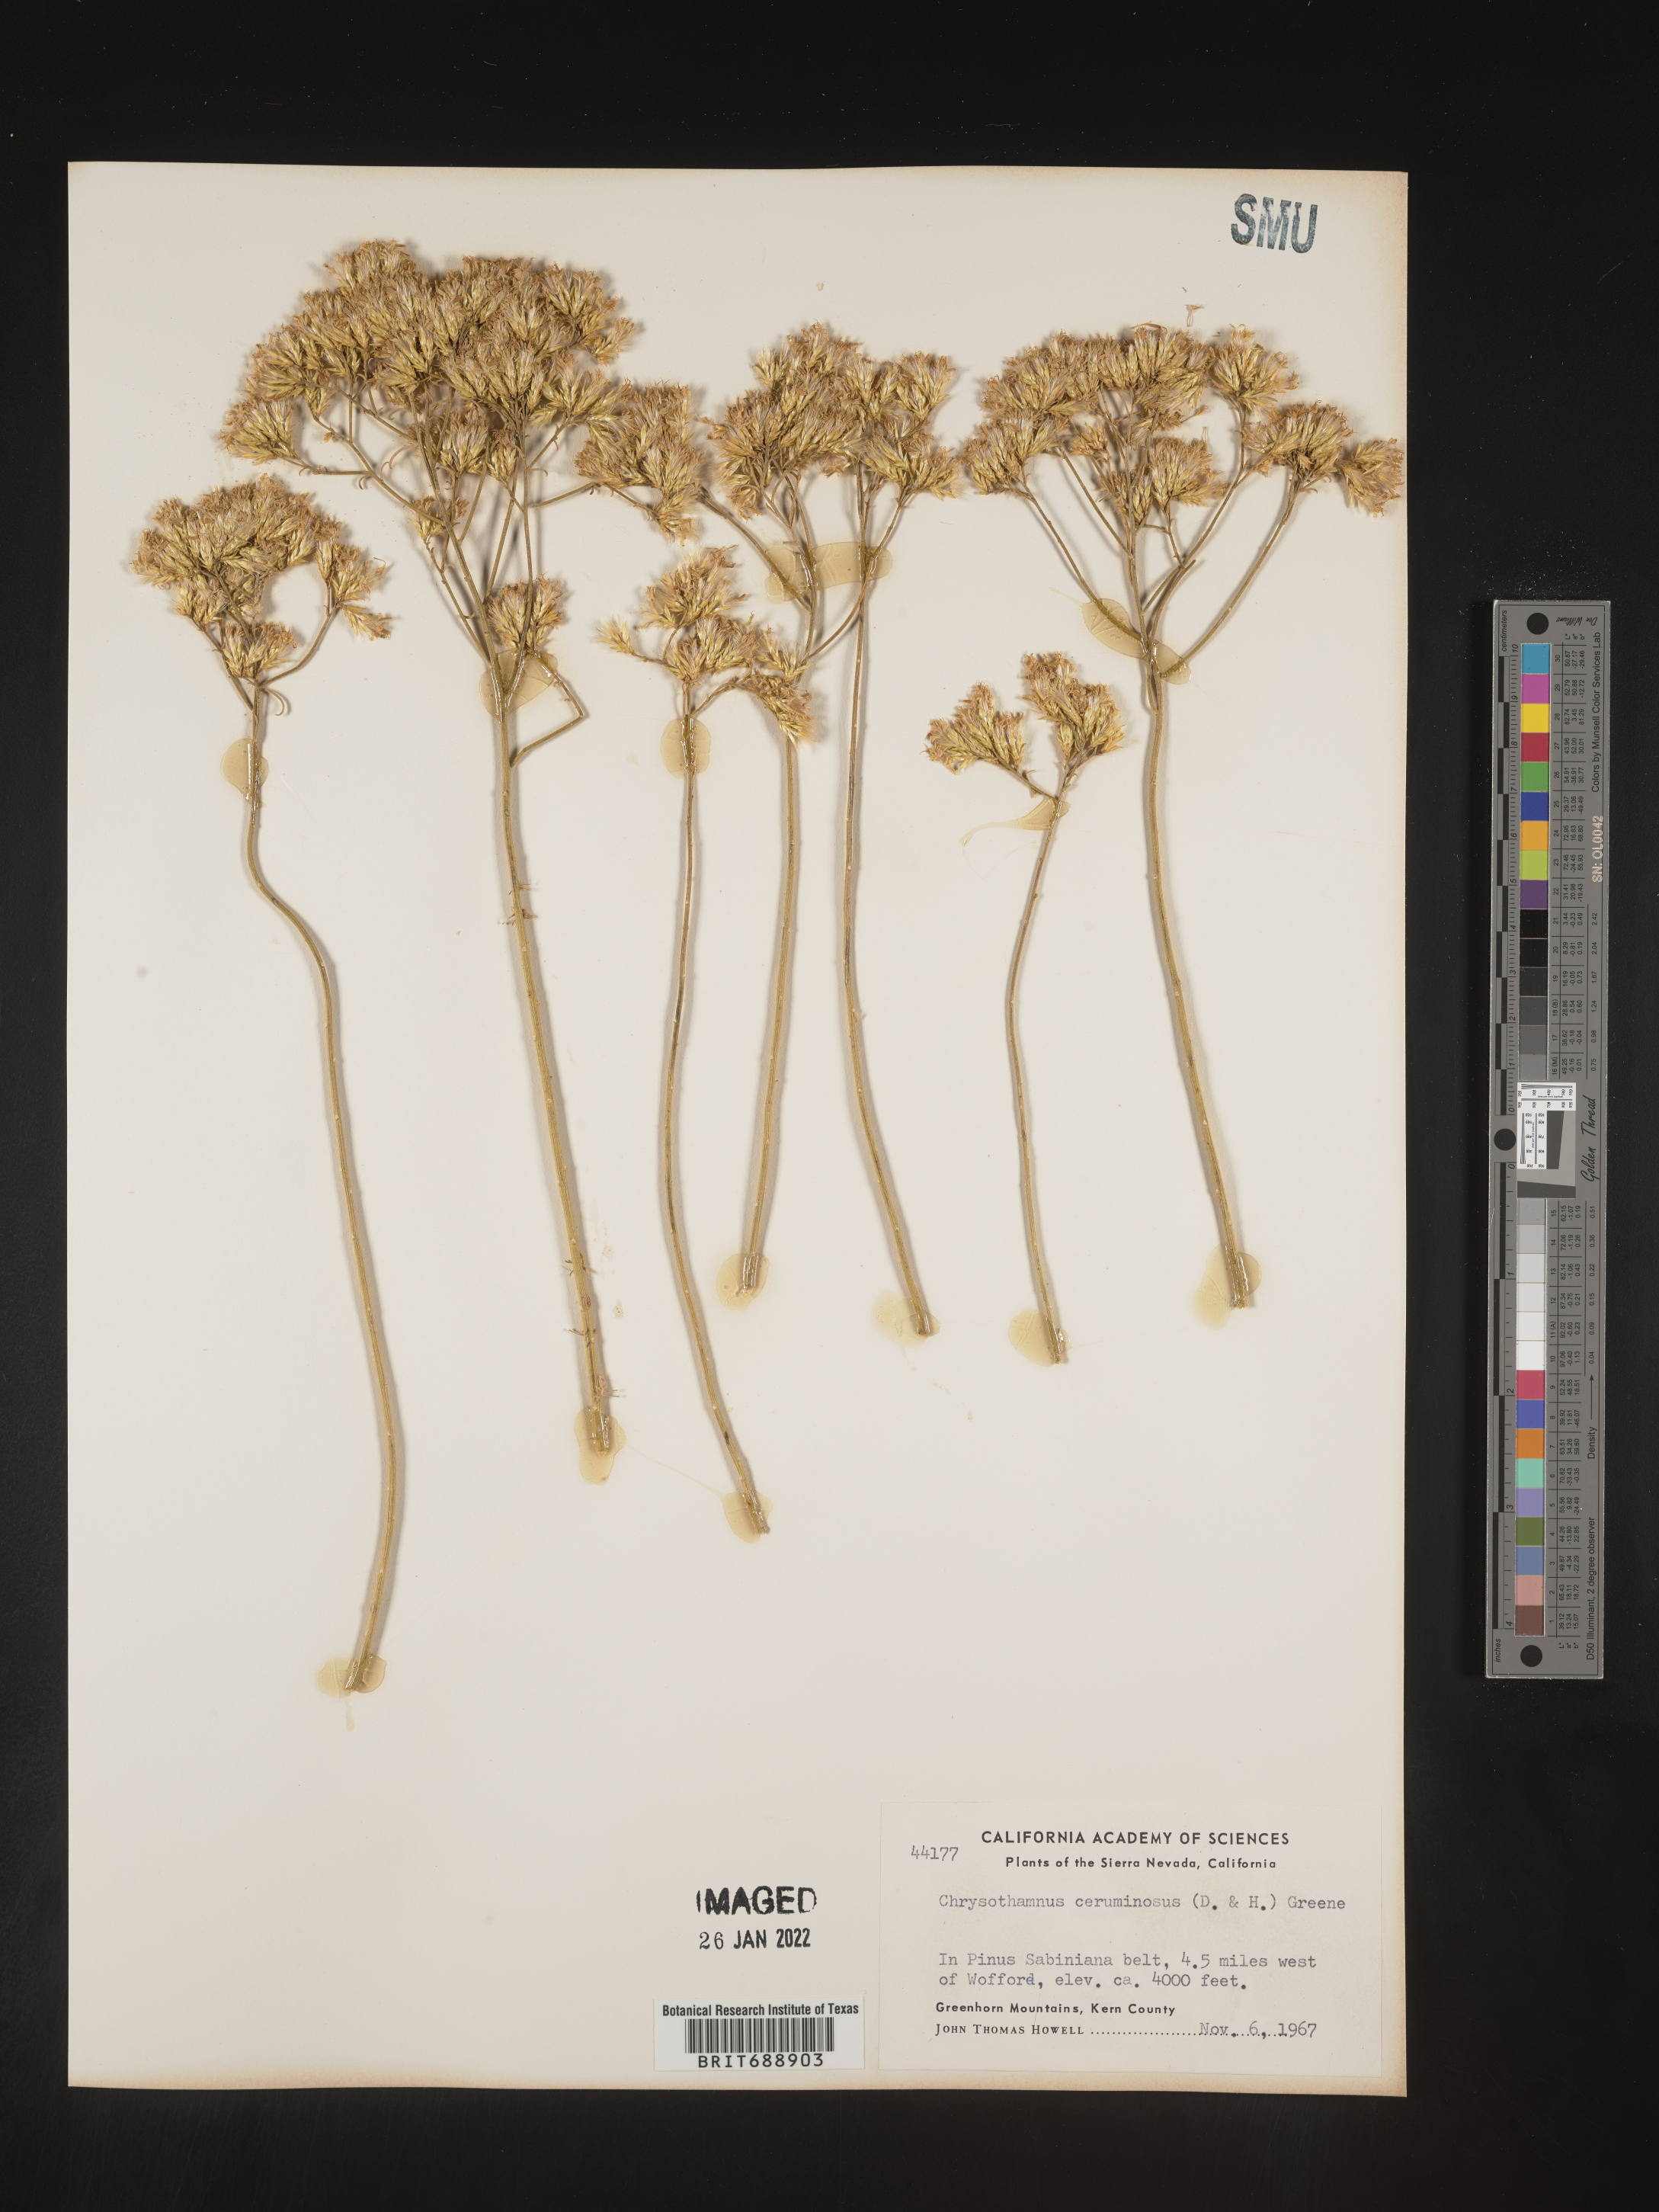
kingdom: Plantae
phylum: Tracheophyta
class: Magnoliopsida
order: Asterales
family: Asteraceae
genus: Chrysothamnus
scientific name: Chrysothamnus
